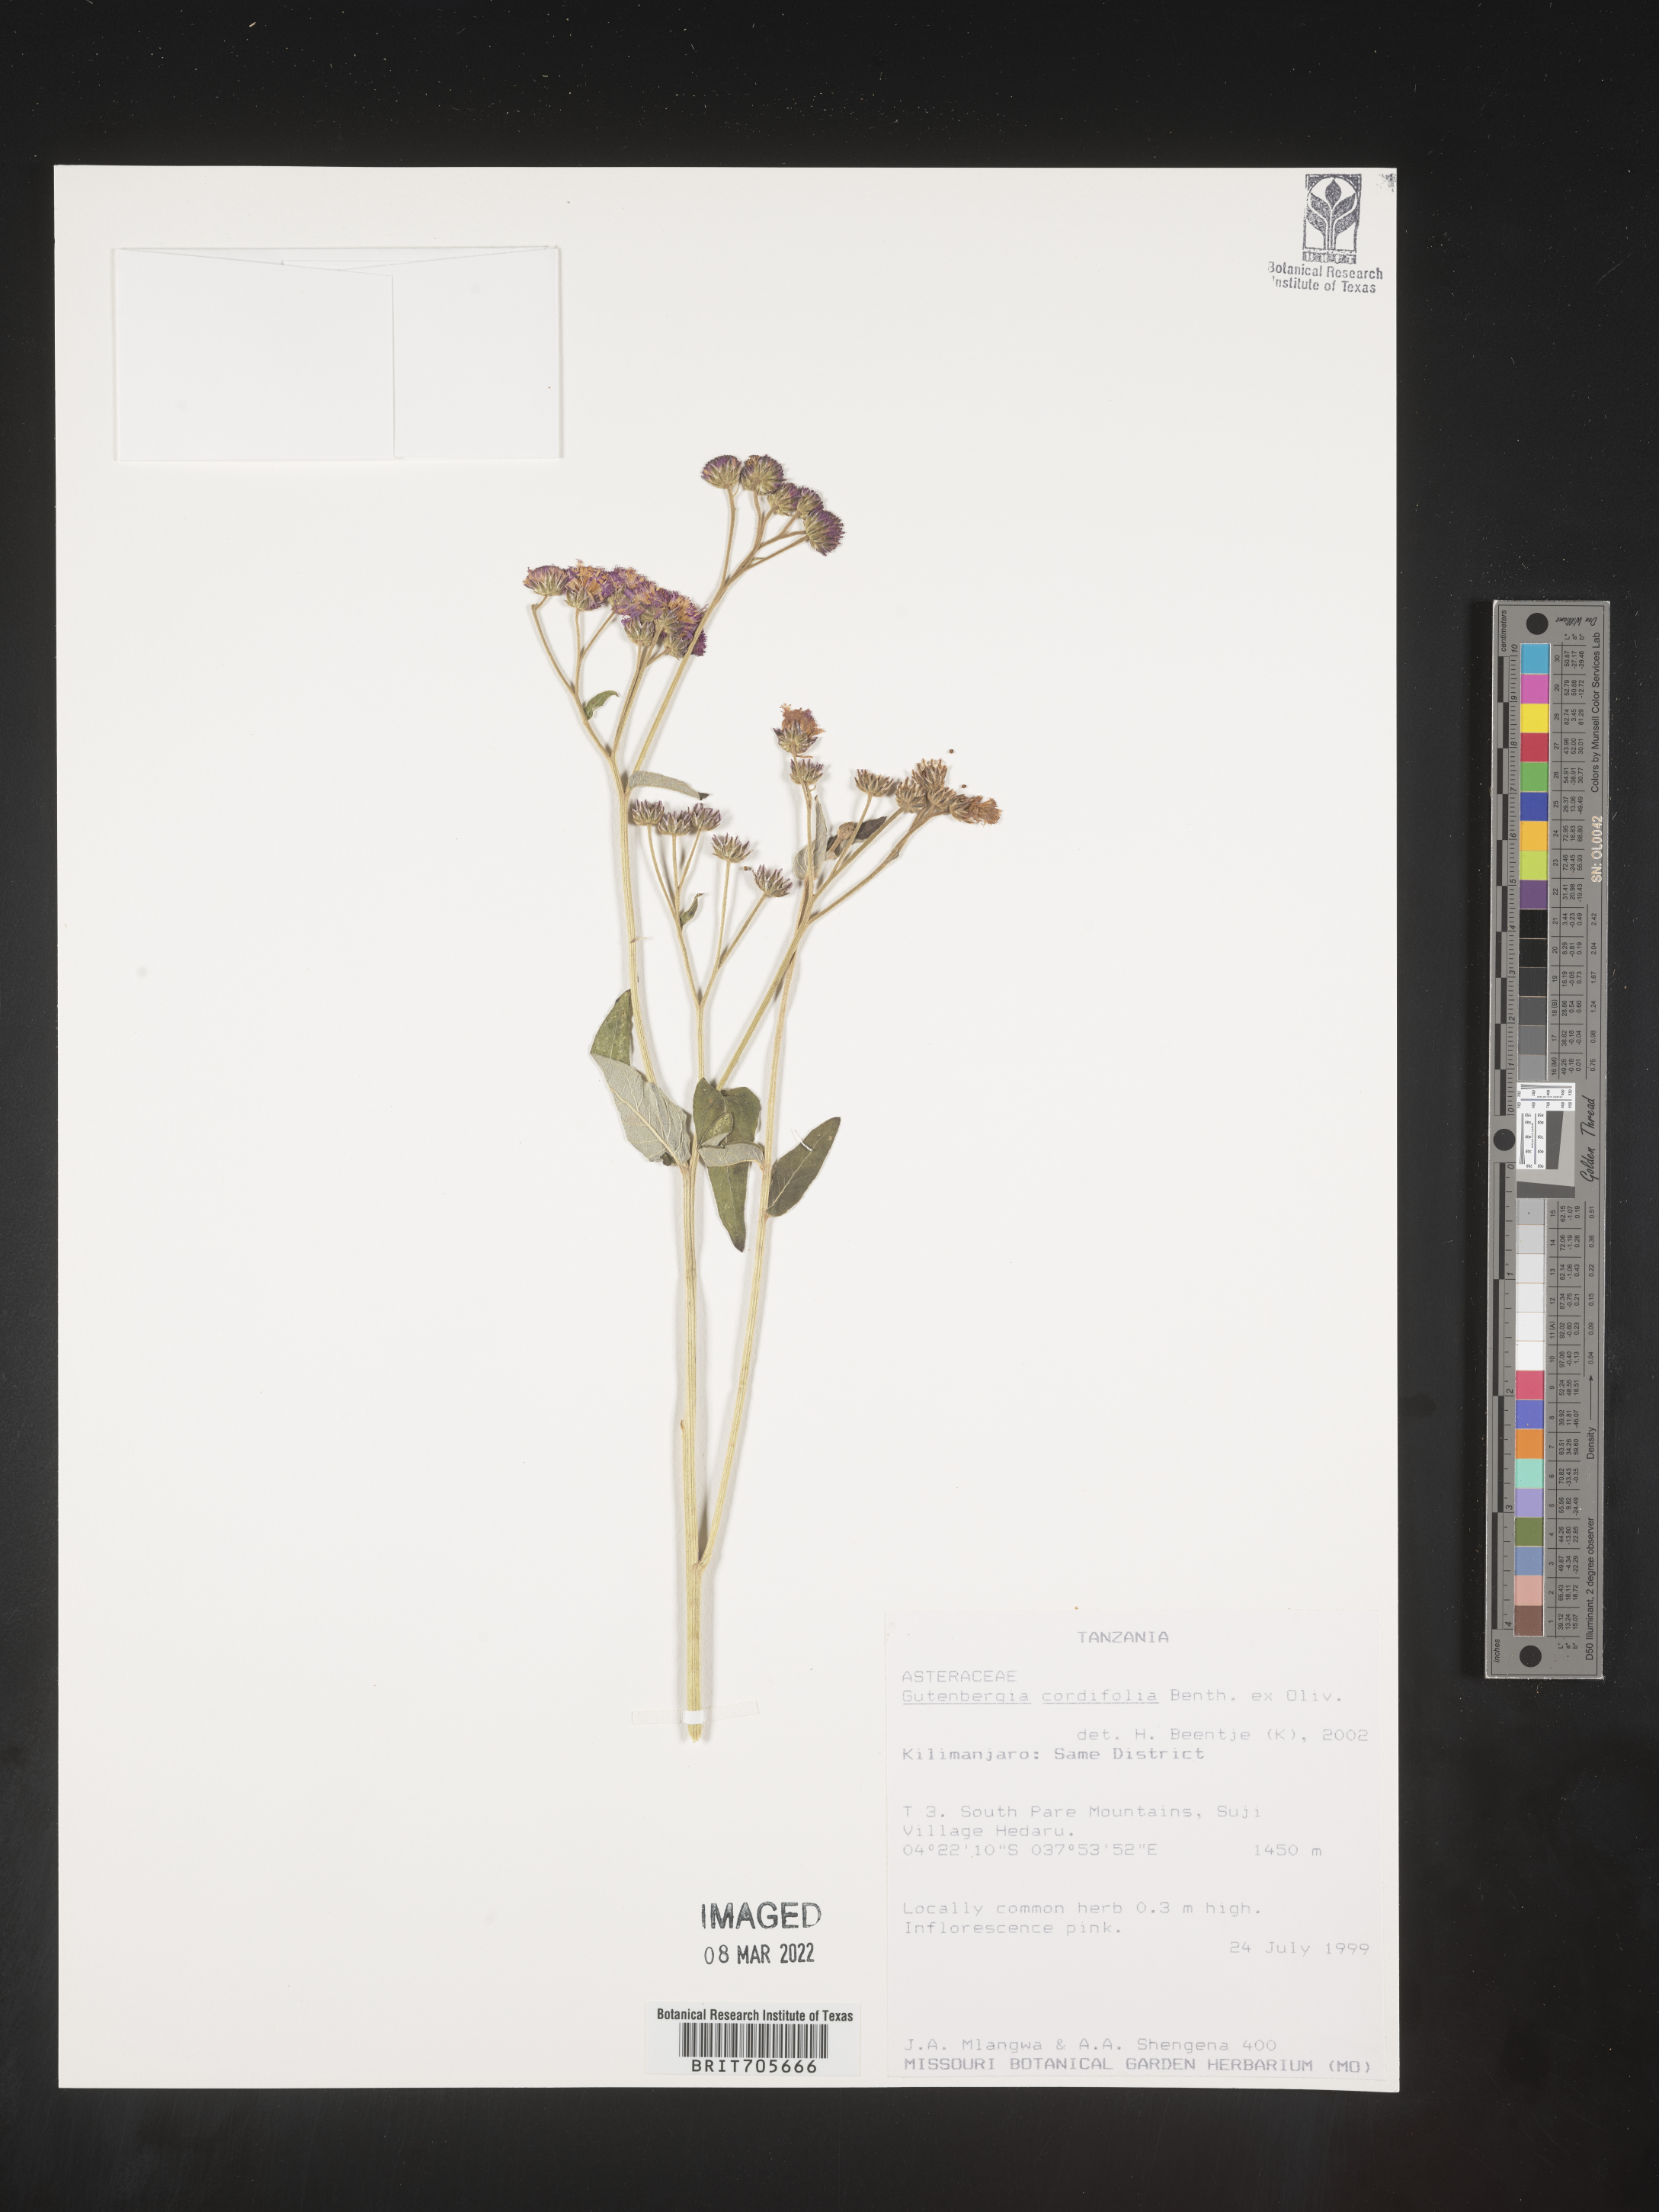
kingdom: Plantae
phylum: Tracheophyta
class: Magnoliopsida
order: Asterales
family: Asteraceae
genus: Gutenbergia
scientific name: Gutenbergia
